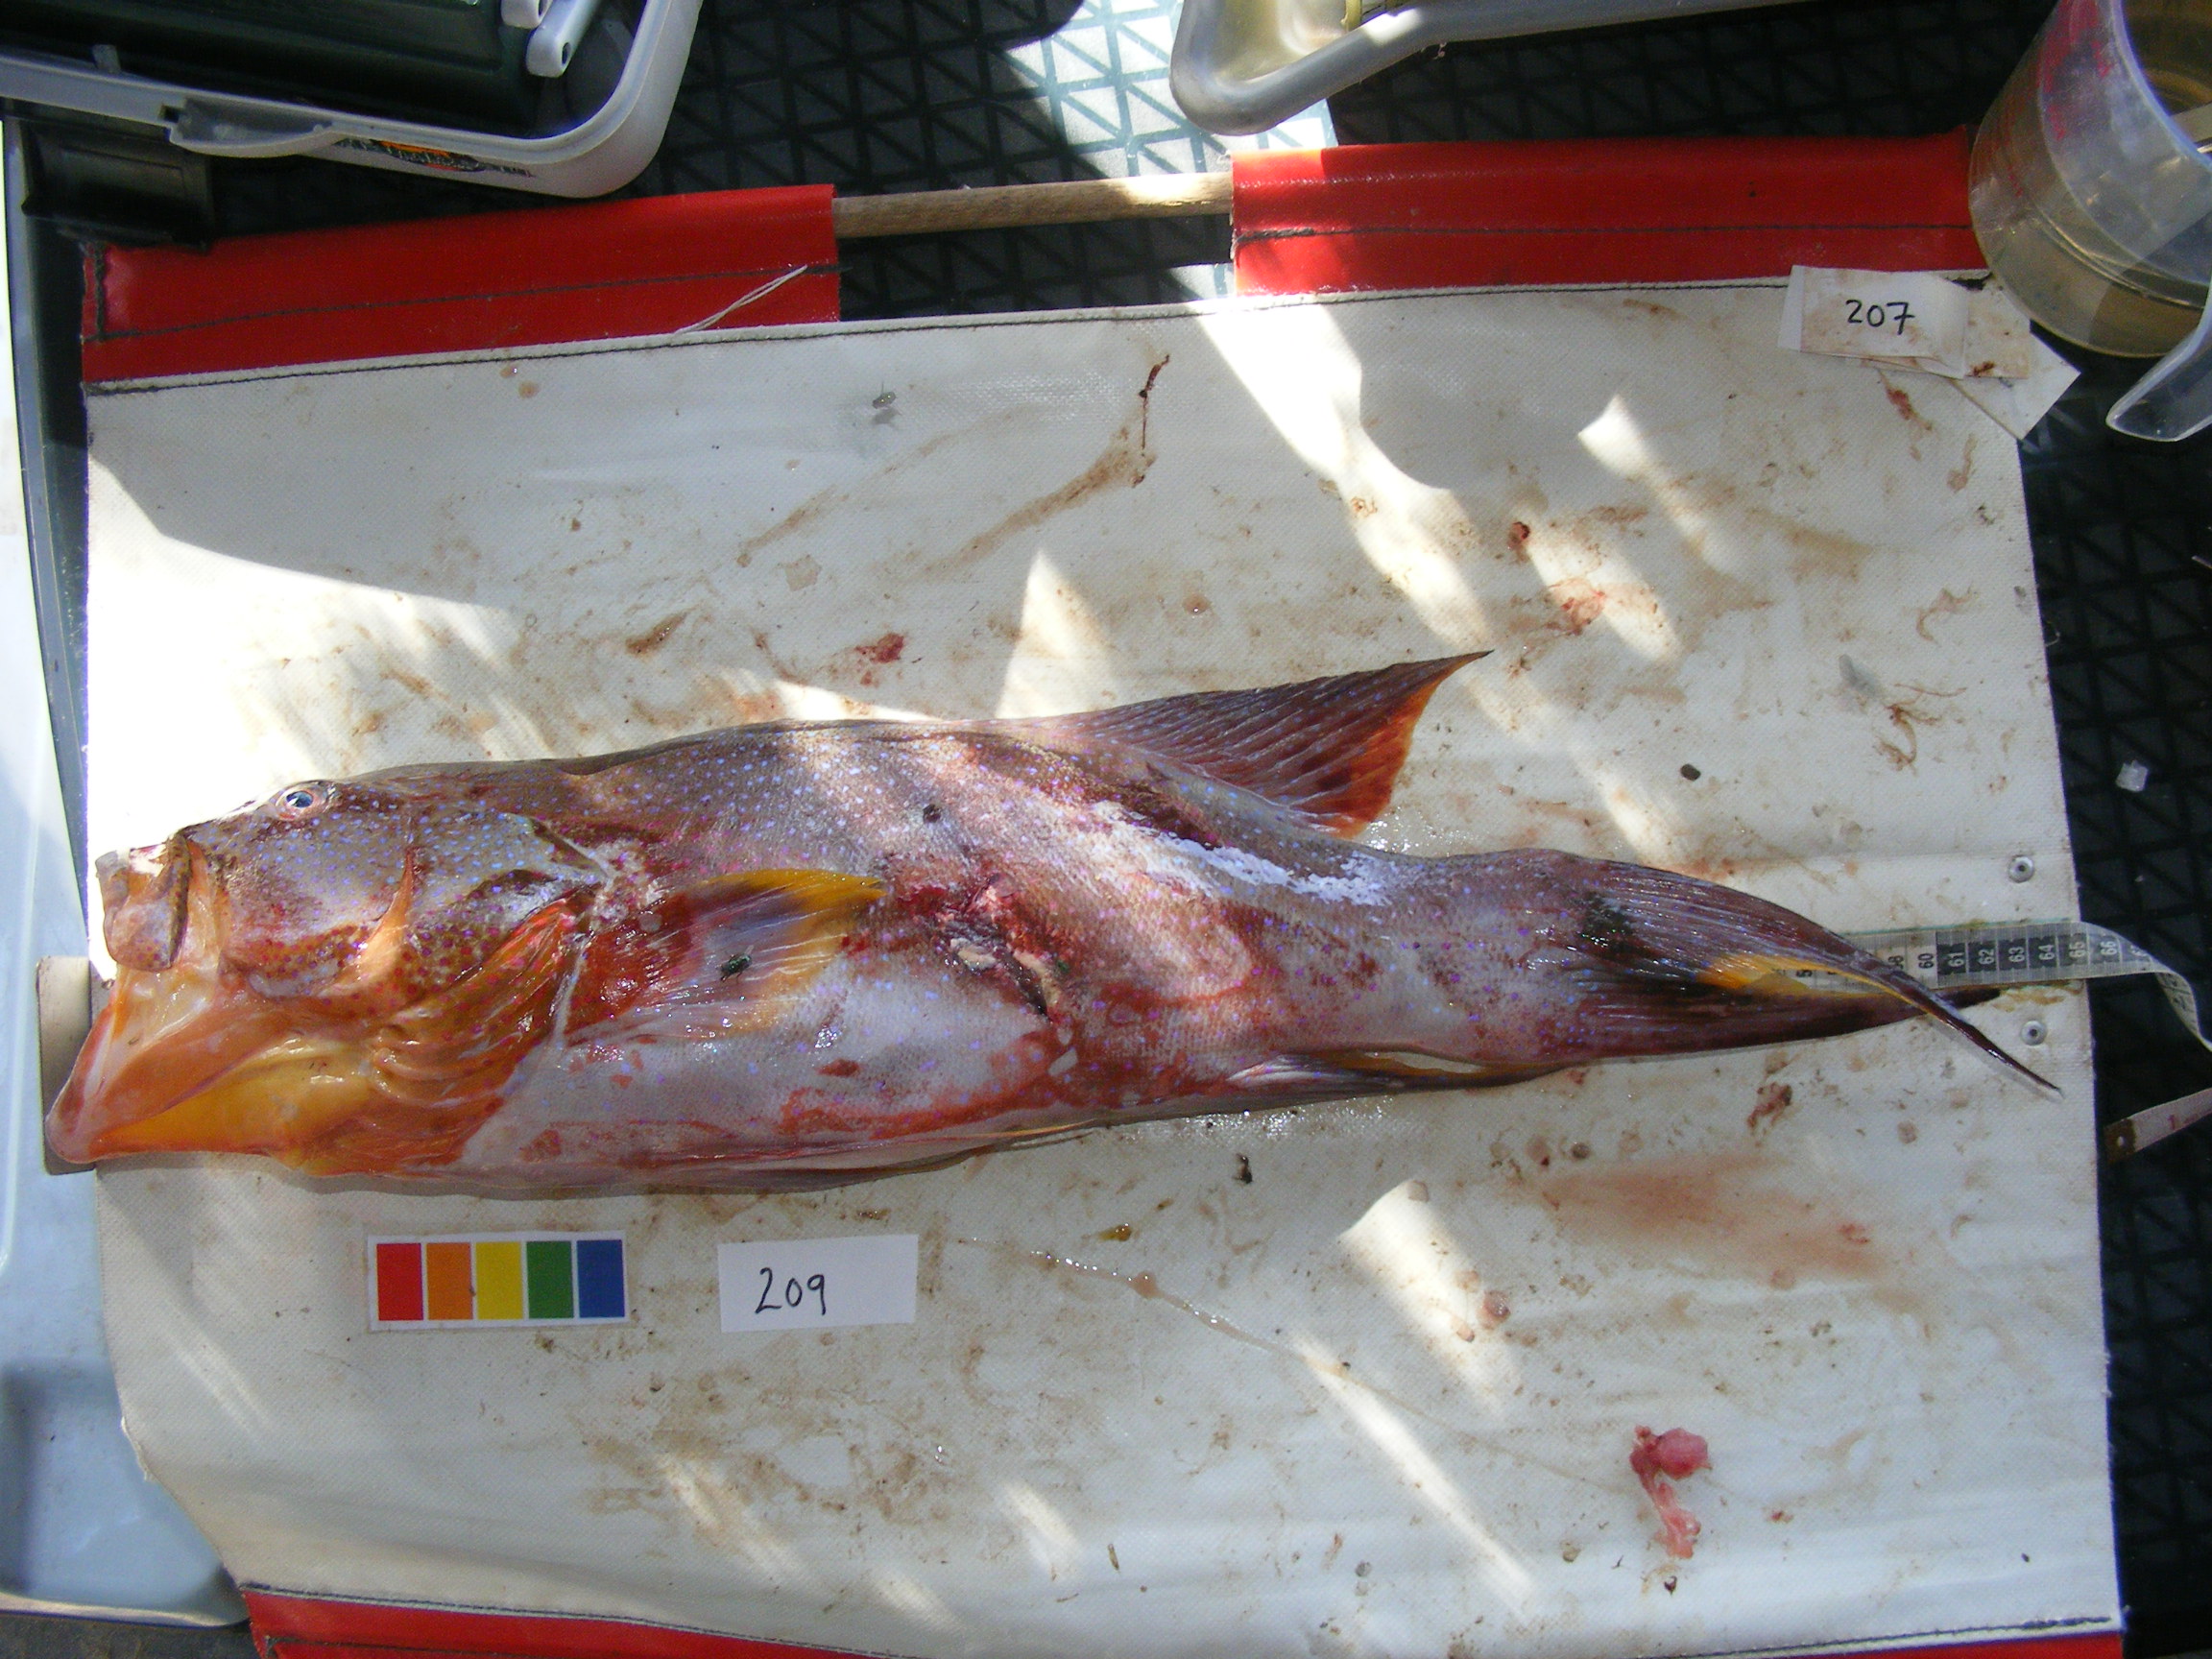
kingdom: Animalia
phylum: Chordata
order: Perciformes
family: Serranidae
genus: Variola
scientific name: Variola louti
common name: Yellow-edged lyretail
